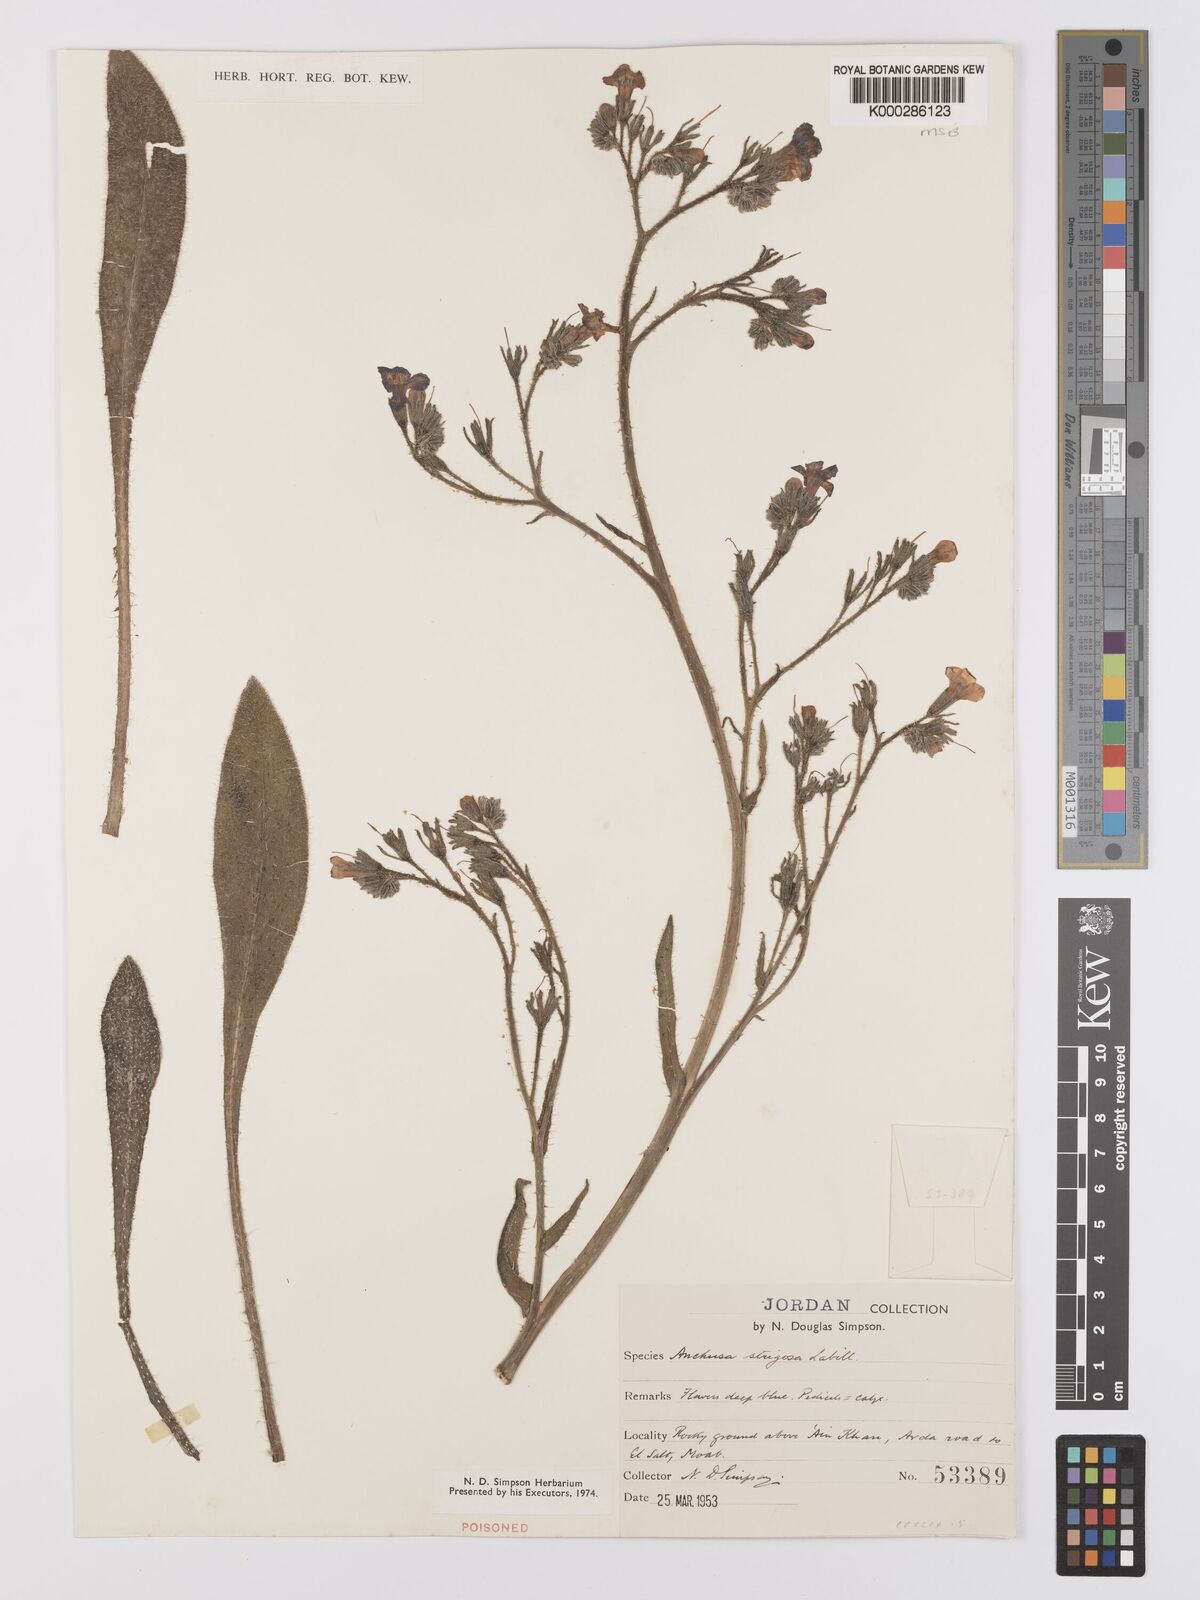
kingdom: Plantae
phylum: Tracheophyta
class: Magnoliopsida
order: Boraginales
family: Boraginaceae
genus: Anchusa
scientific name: Anchusa strigosa
